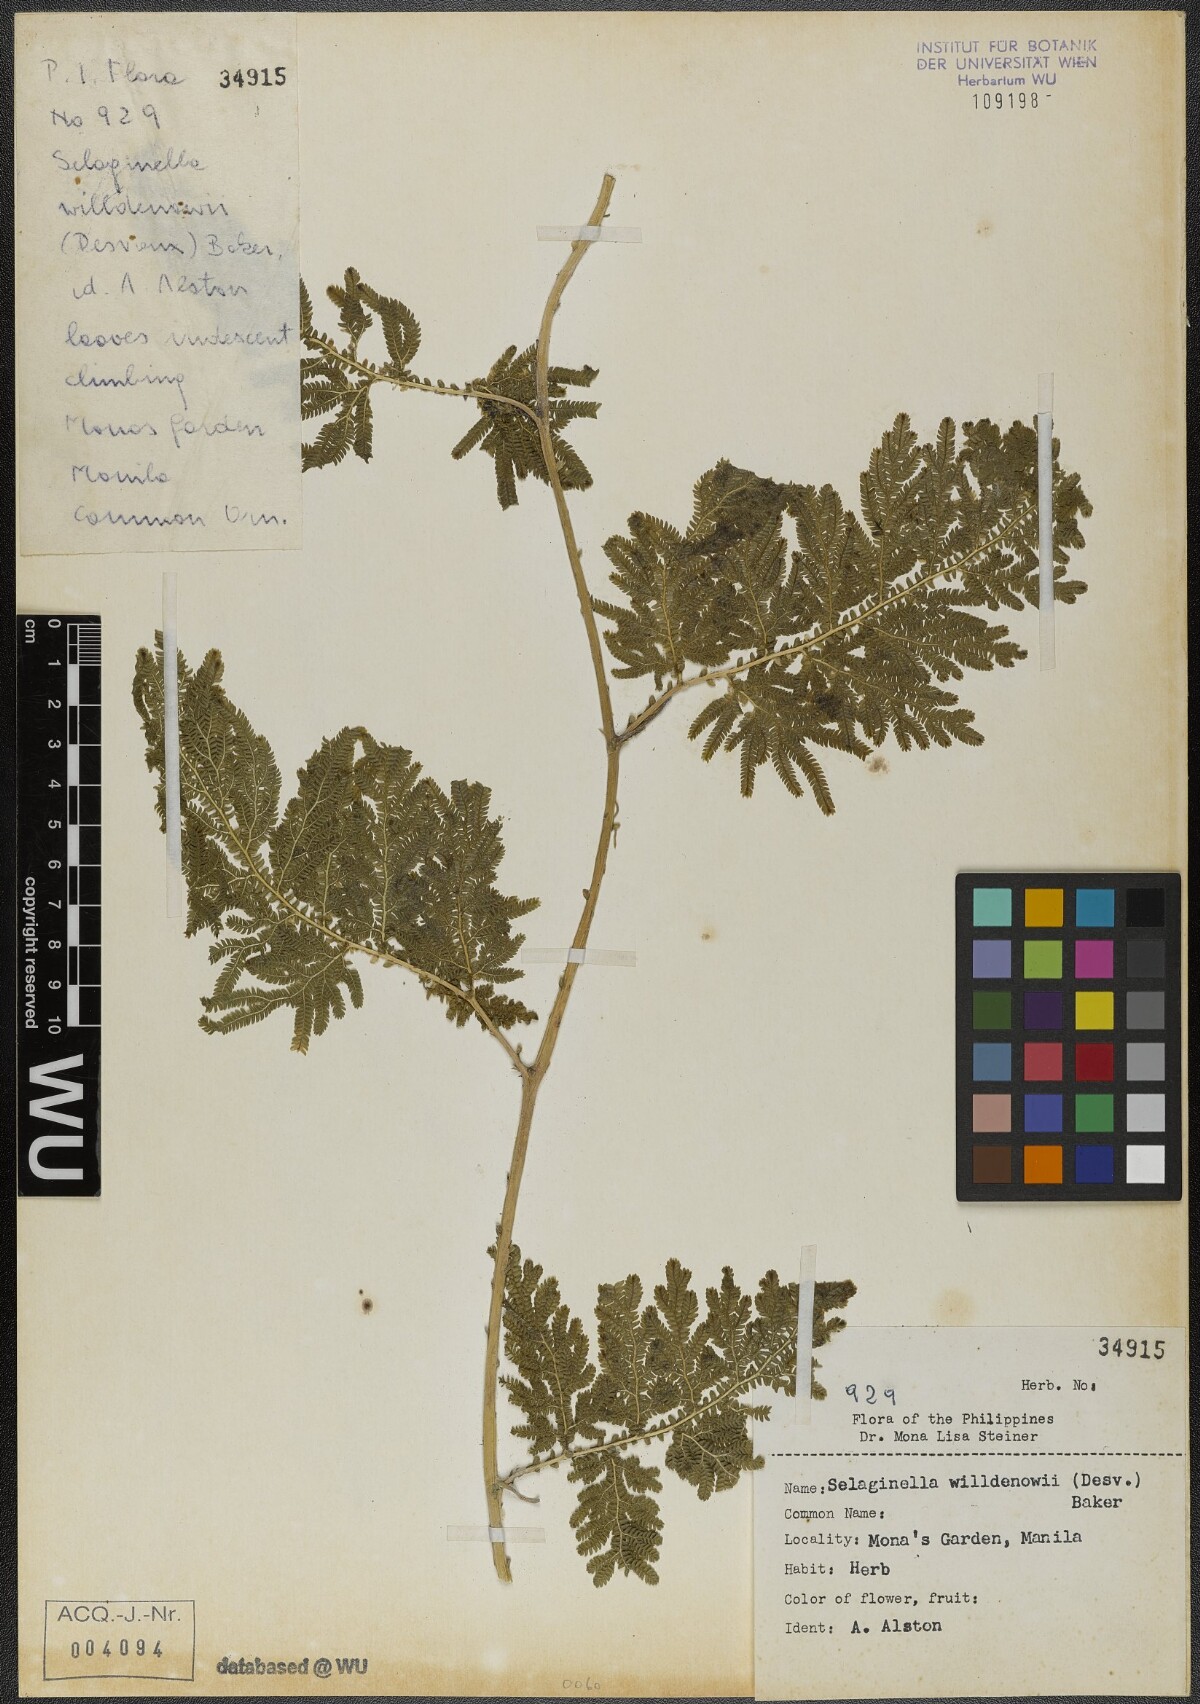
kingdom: Plantae
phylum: Tracheophyta
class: Lycopodiopsida
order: Selaginellales
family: Selaginellaceae
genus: Selaginella
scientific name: Selaginella willdenowii
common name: Willdenow's spikemoss
